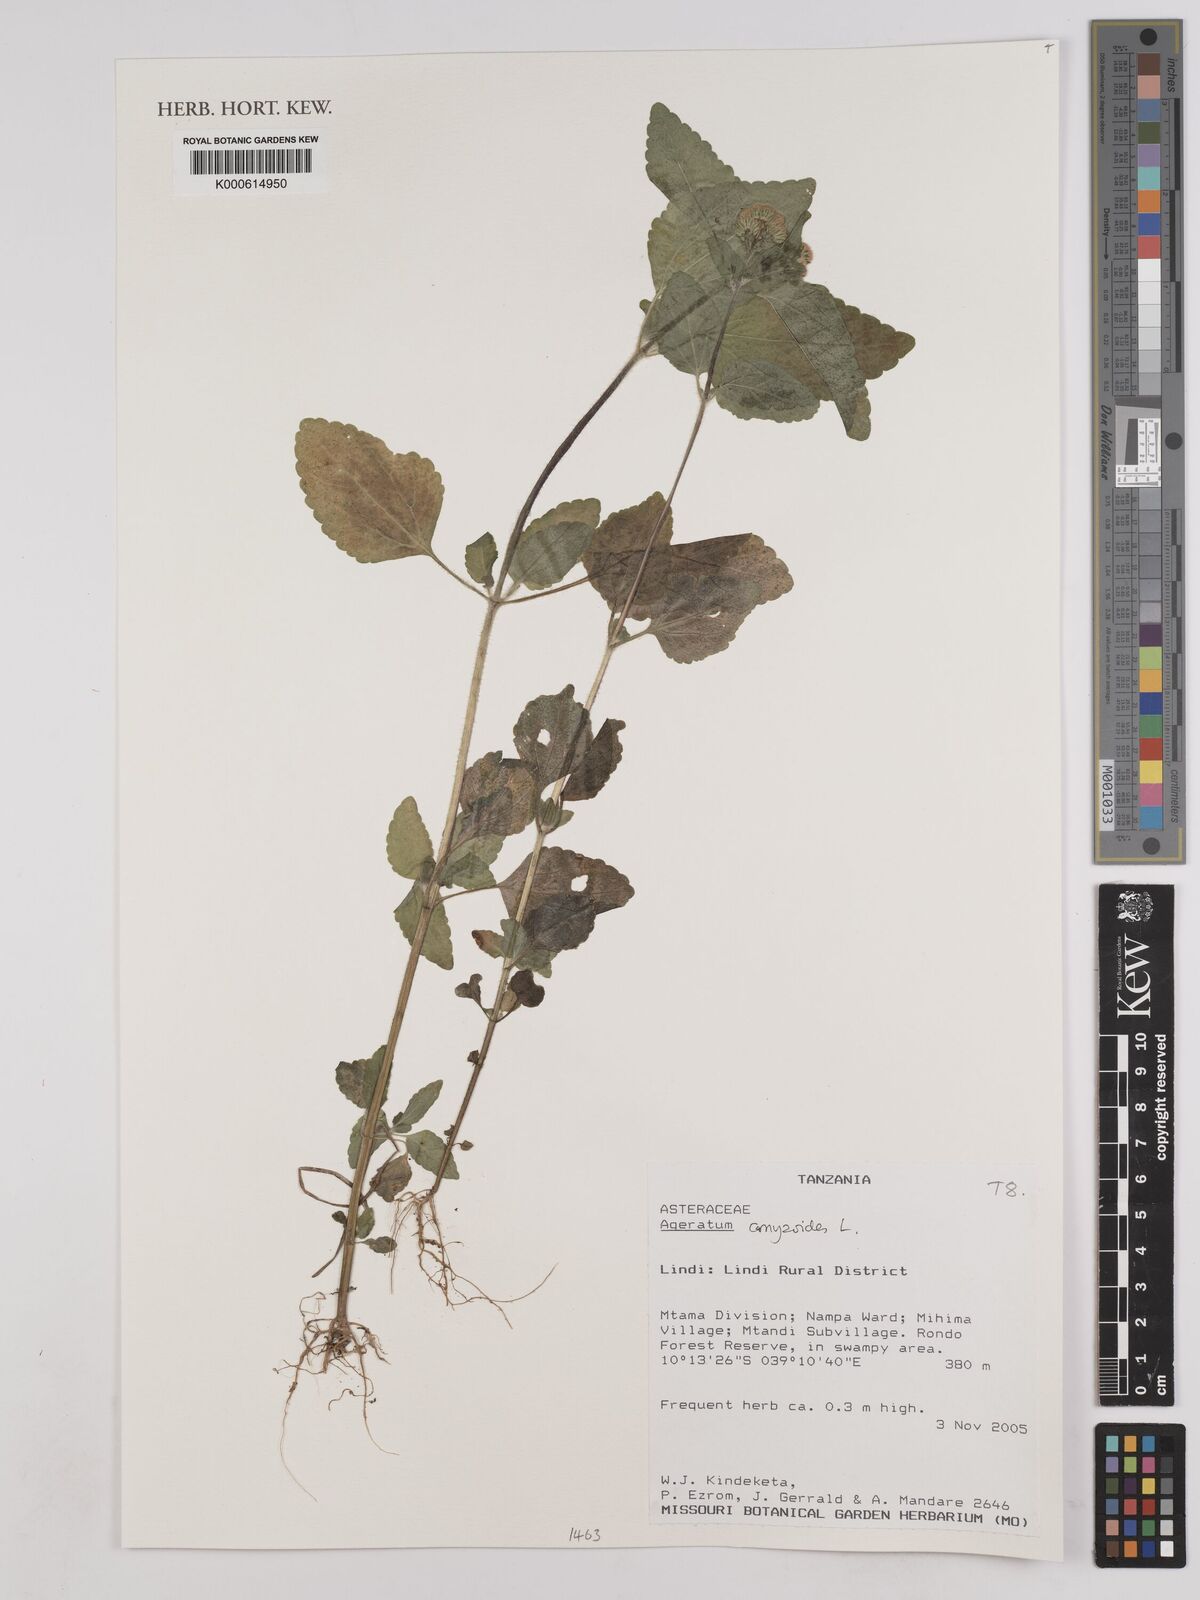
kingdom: Plantae
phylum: Tracheophyta
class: Magnoliopsida
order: Asterales
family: Asteraceae
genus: Ageratum
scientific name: Ageratum conyzoides
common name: Tropical whiteweed
